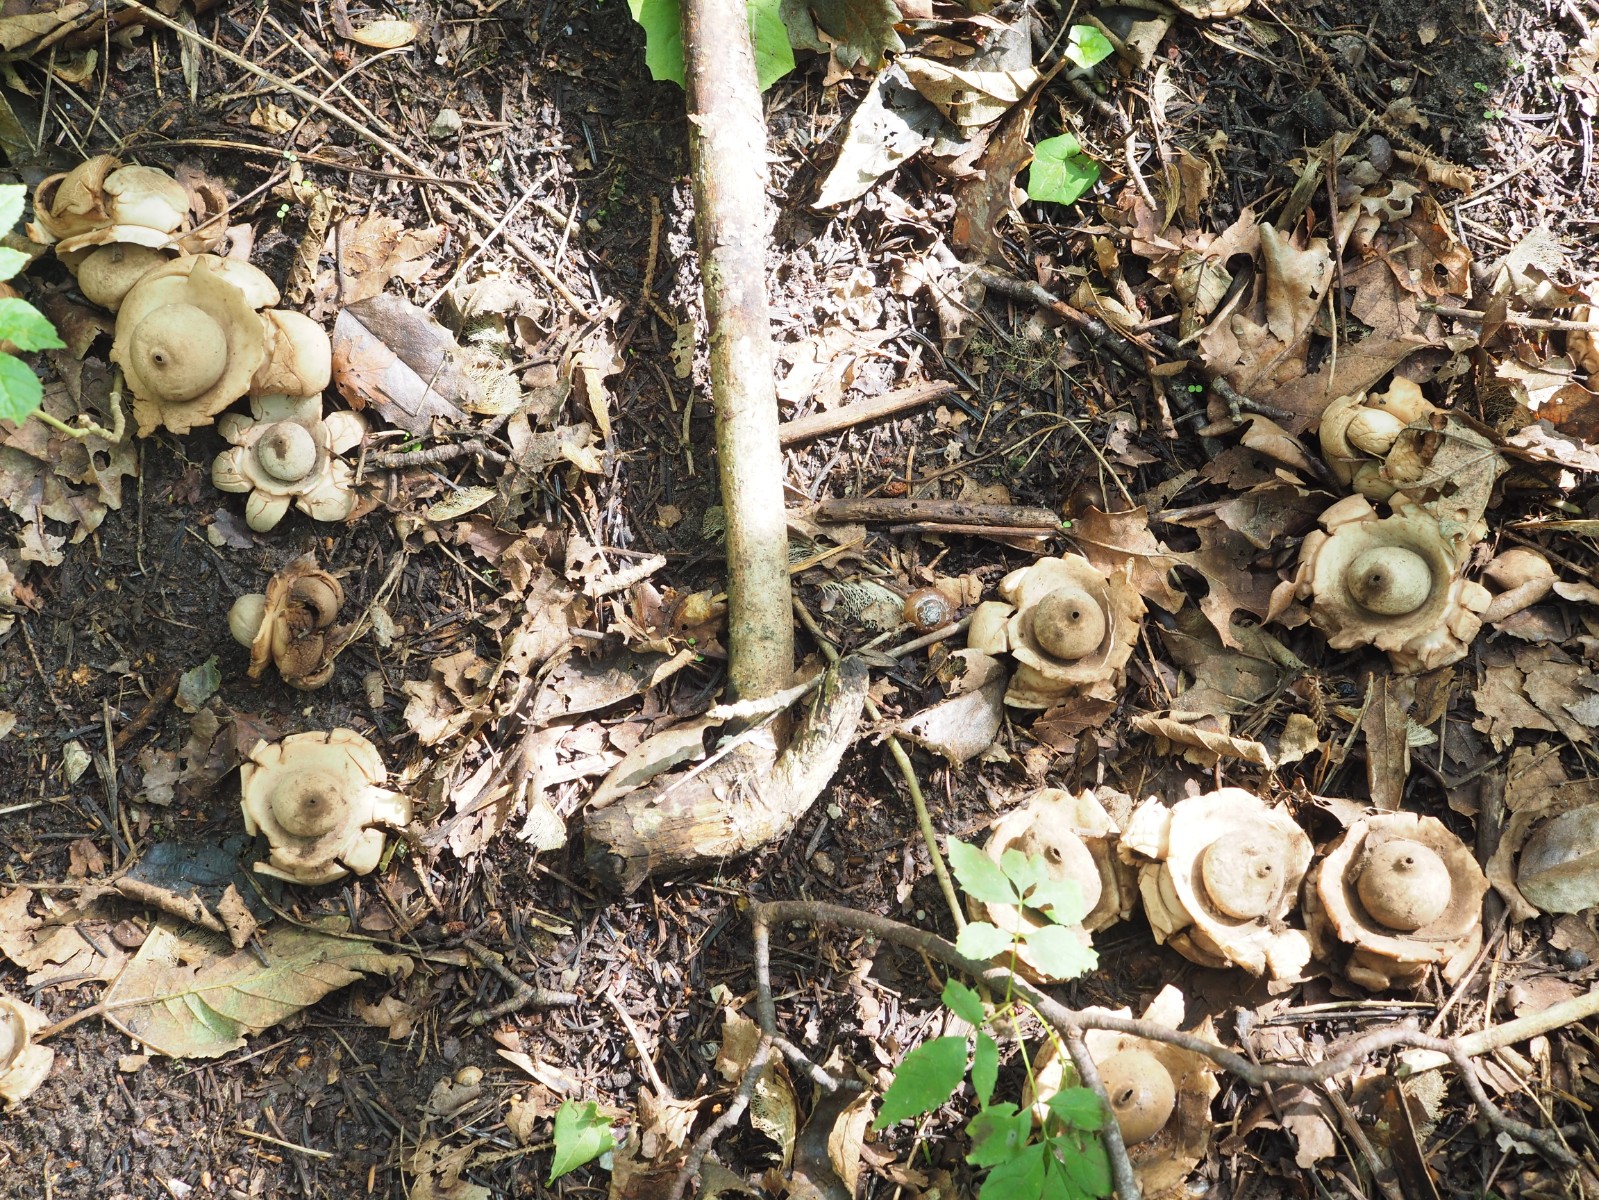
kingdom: Fungi
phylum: Basidiomycota
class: Agaricomycetes
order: Geastrales
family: Geastraceae
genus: Geastrum
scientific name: Geastrum michelianum
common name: kødet stjernebold
